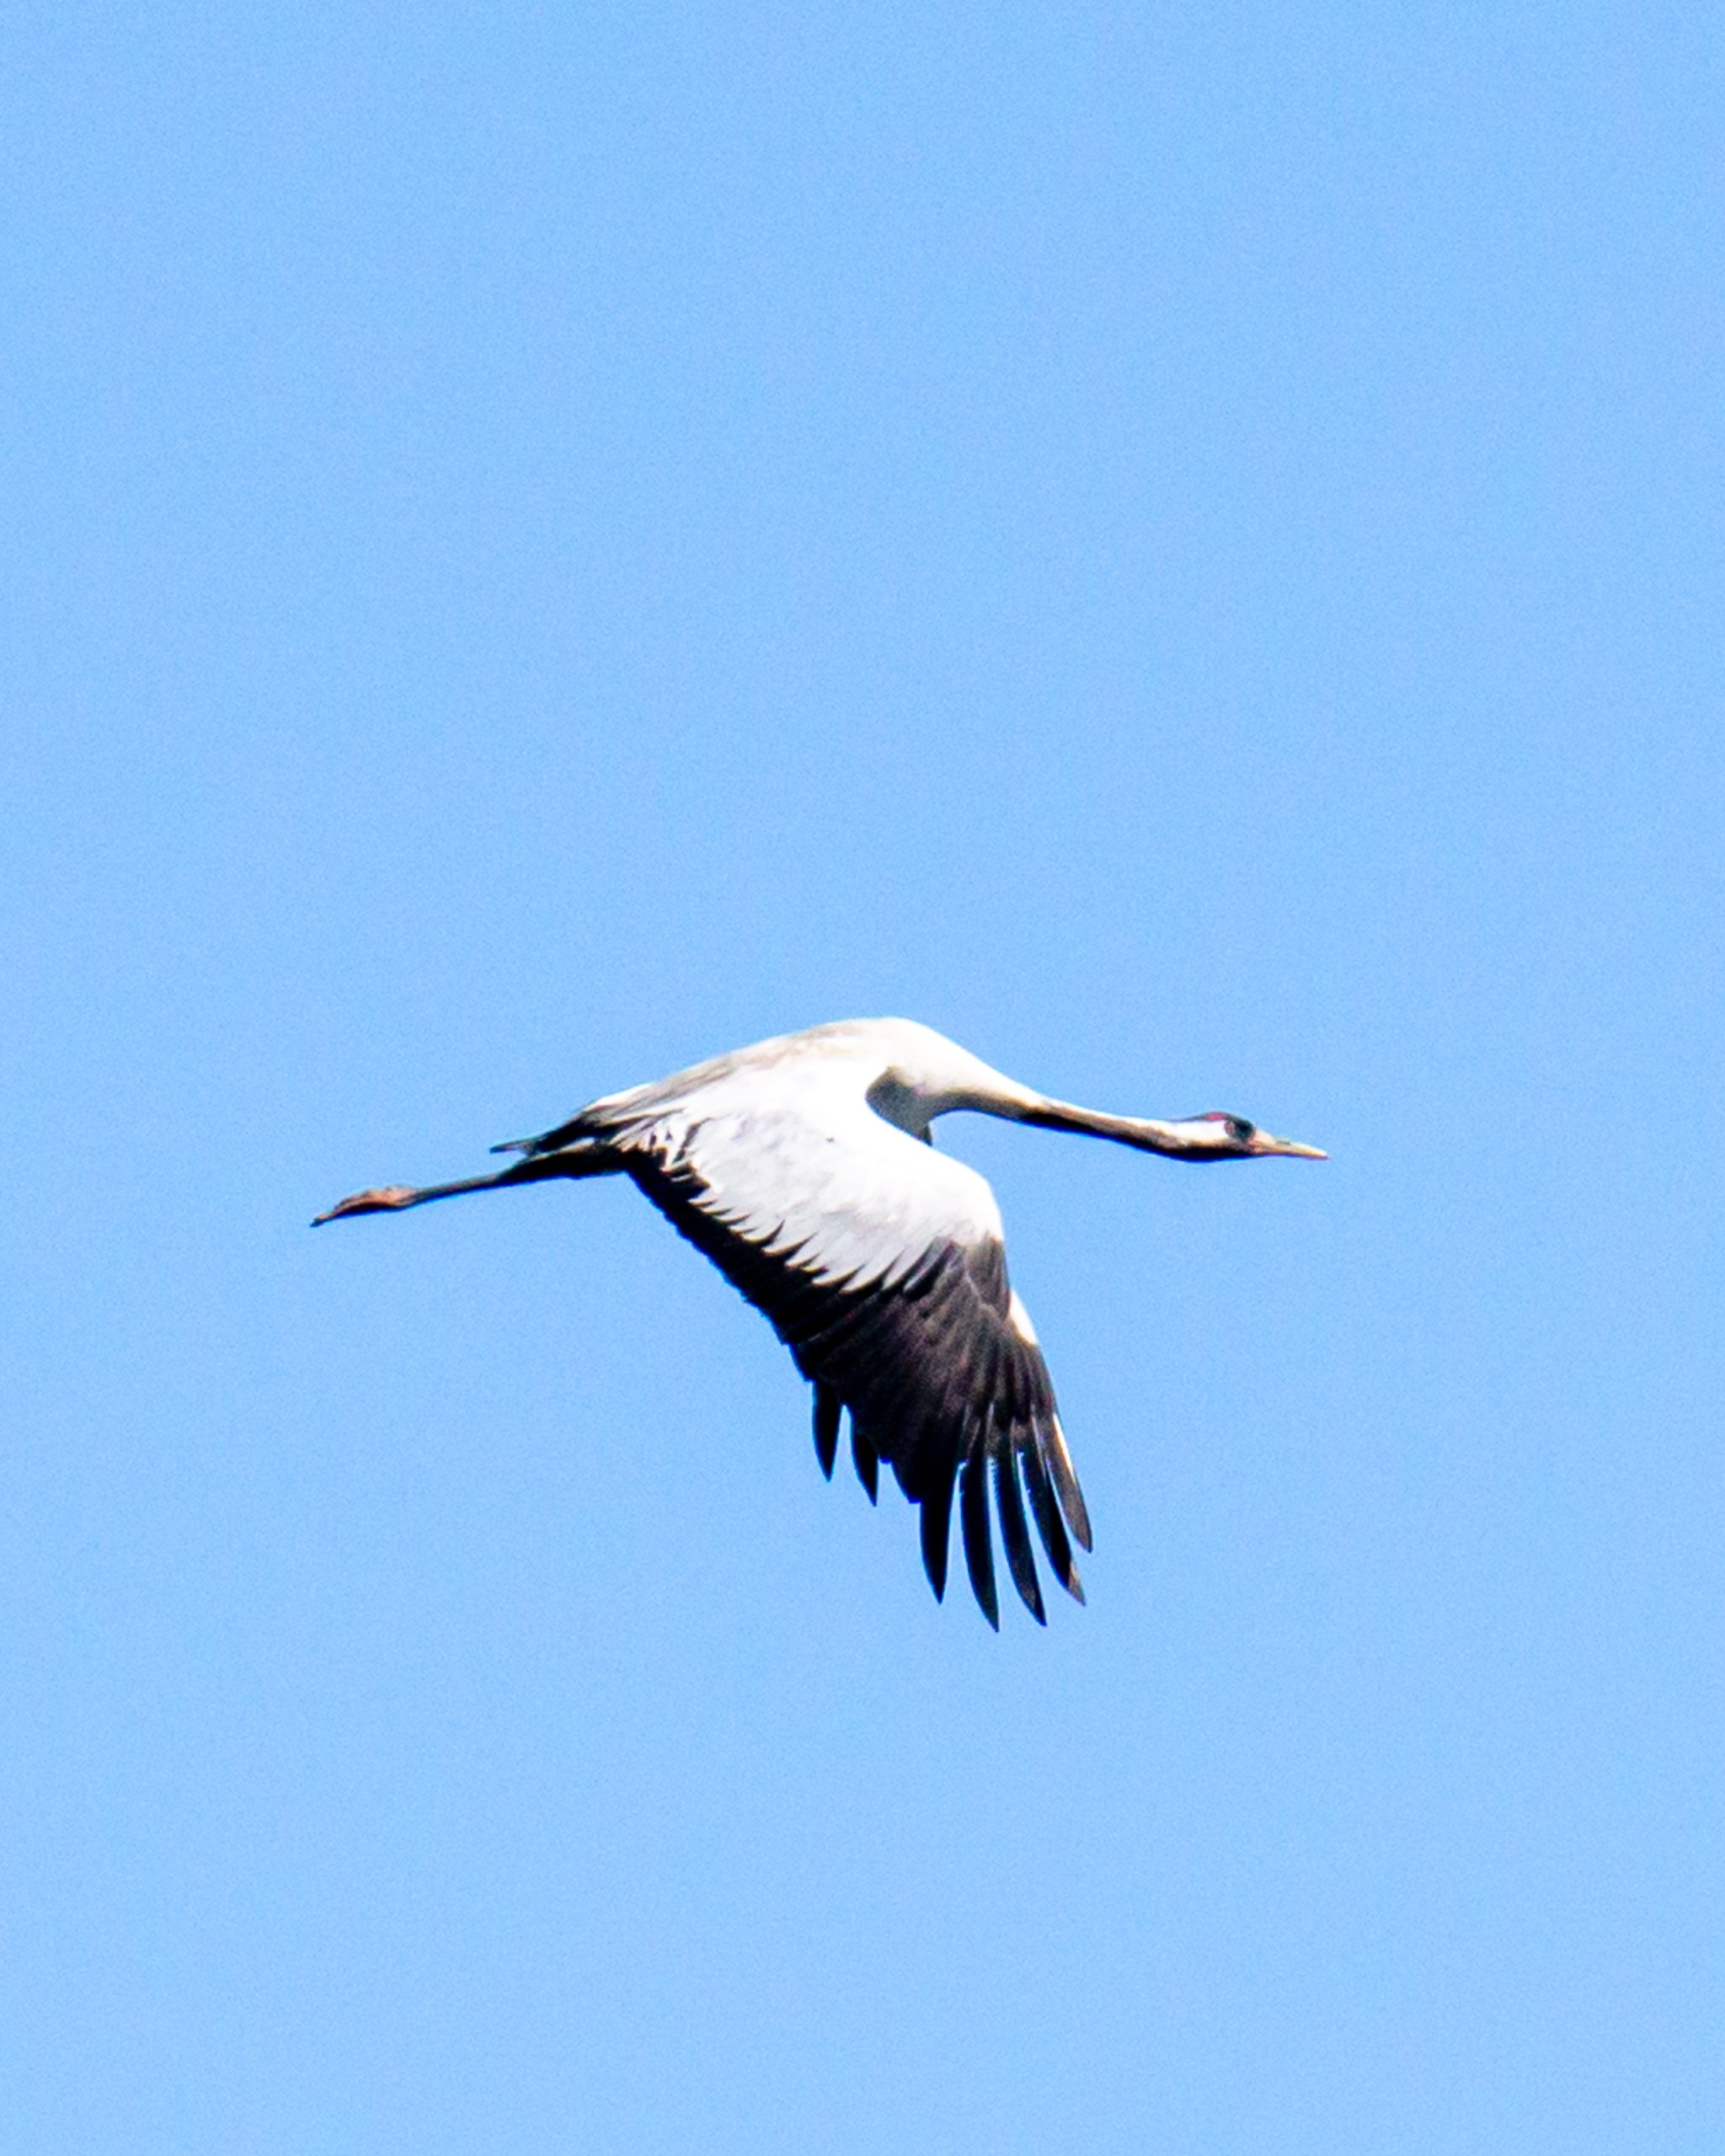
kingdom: Animalia
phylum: Chordata
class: Aves
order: Gruiformes
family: Gruidae
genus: Grus
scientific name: Grus grus
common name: Trane
